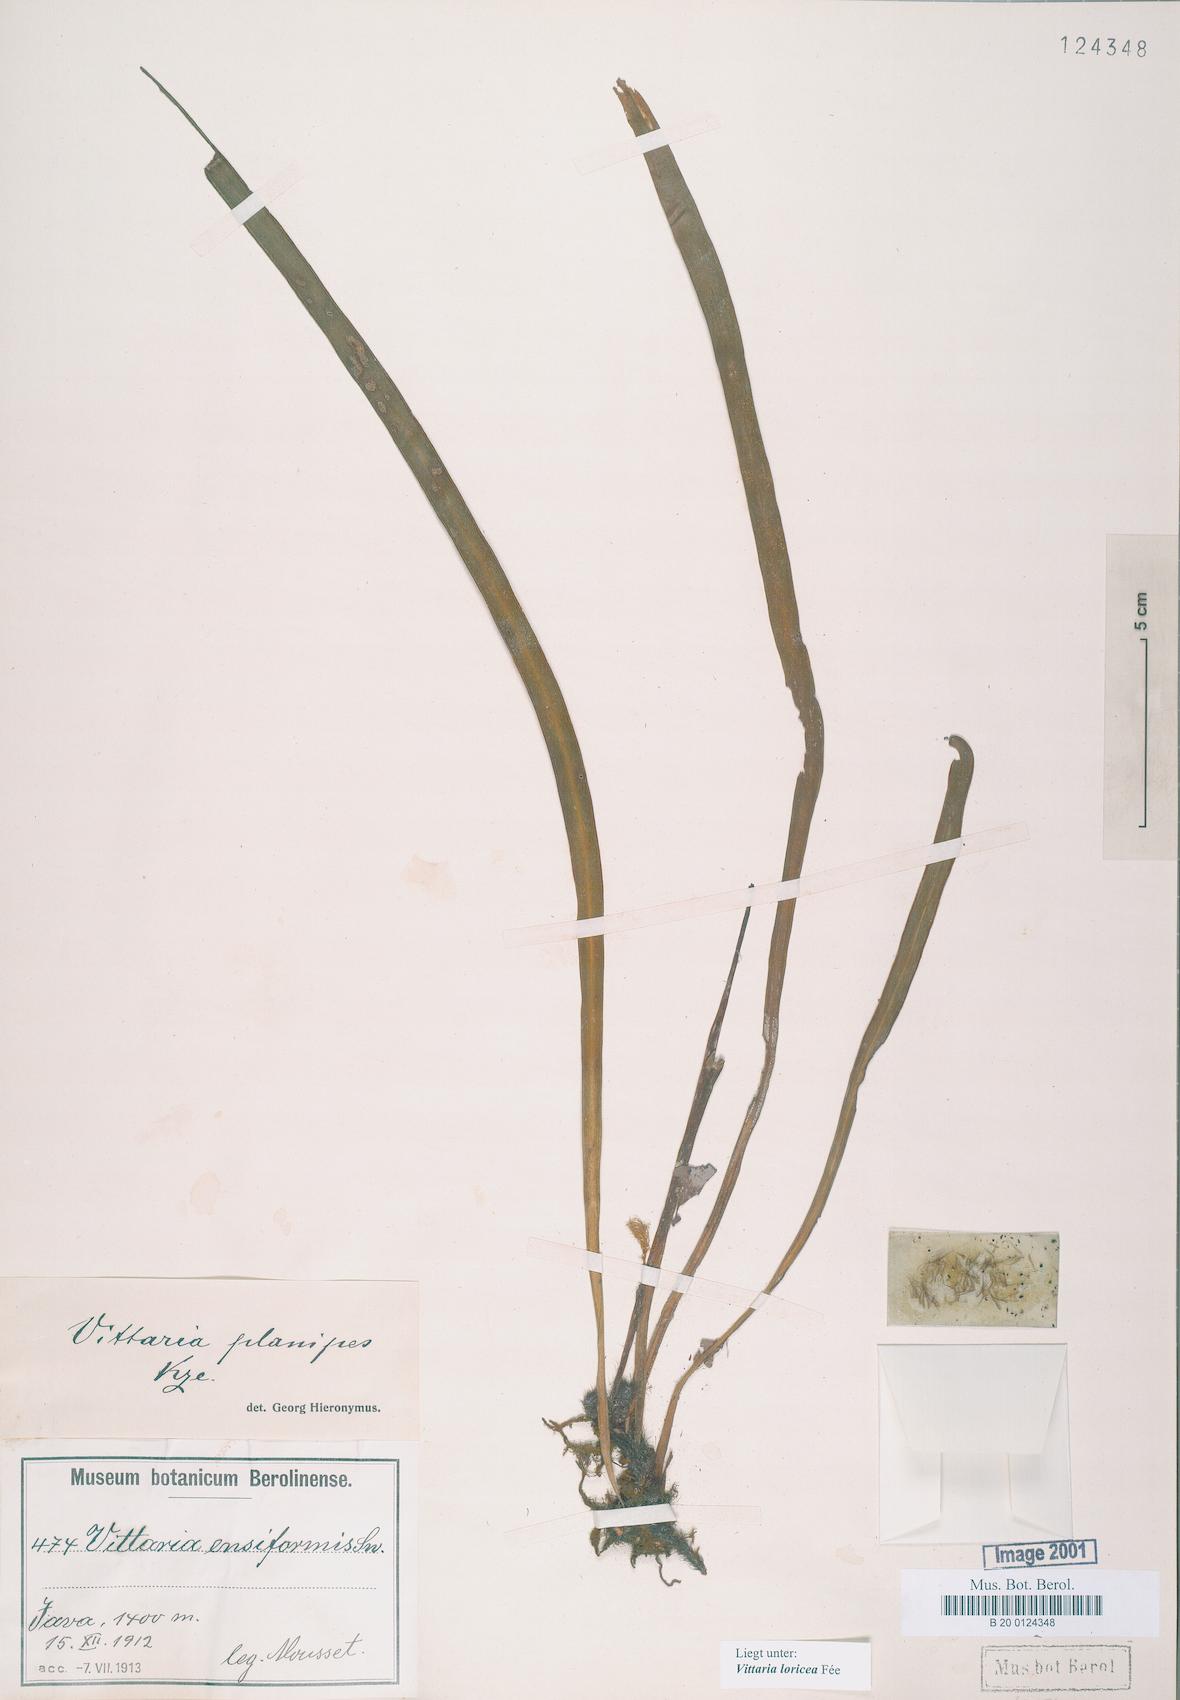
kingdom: Plantae
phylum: Tracheophyta
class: Polypodiopsida
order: Polypodiales
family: Pteridaceae
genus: Haplopteris
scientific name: Haplopteris zosterifolia
